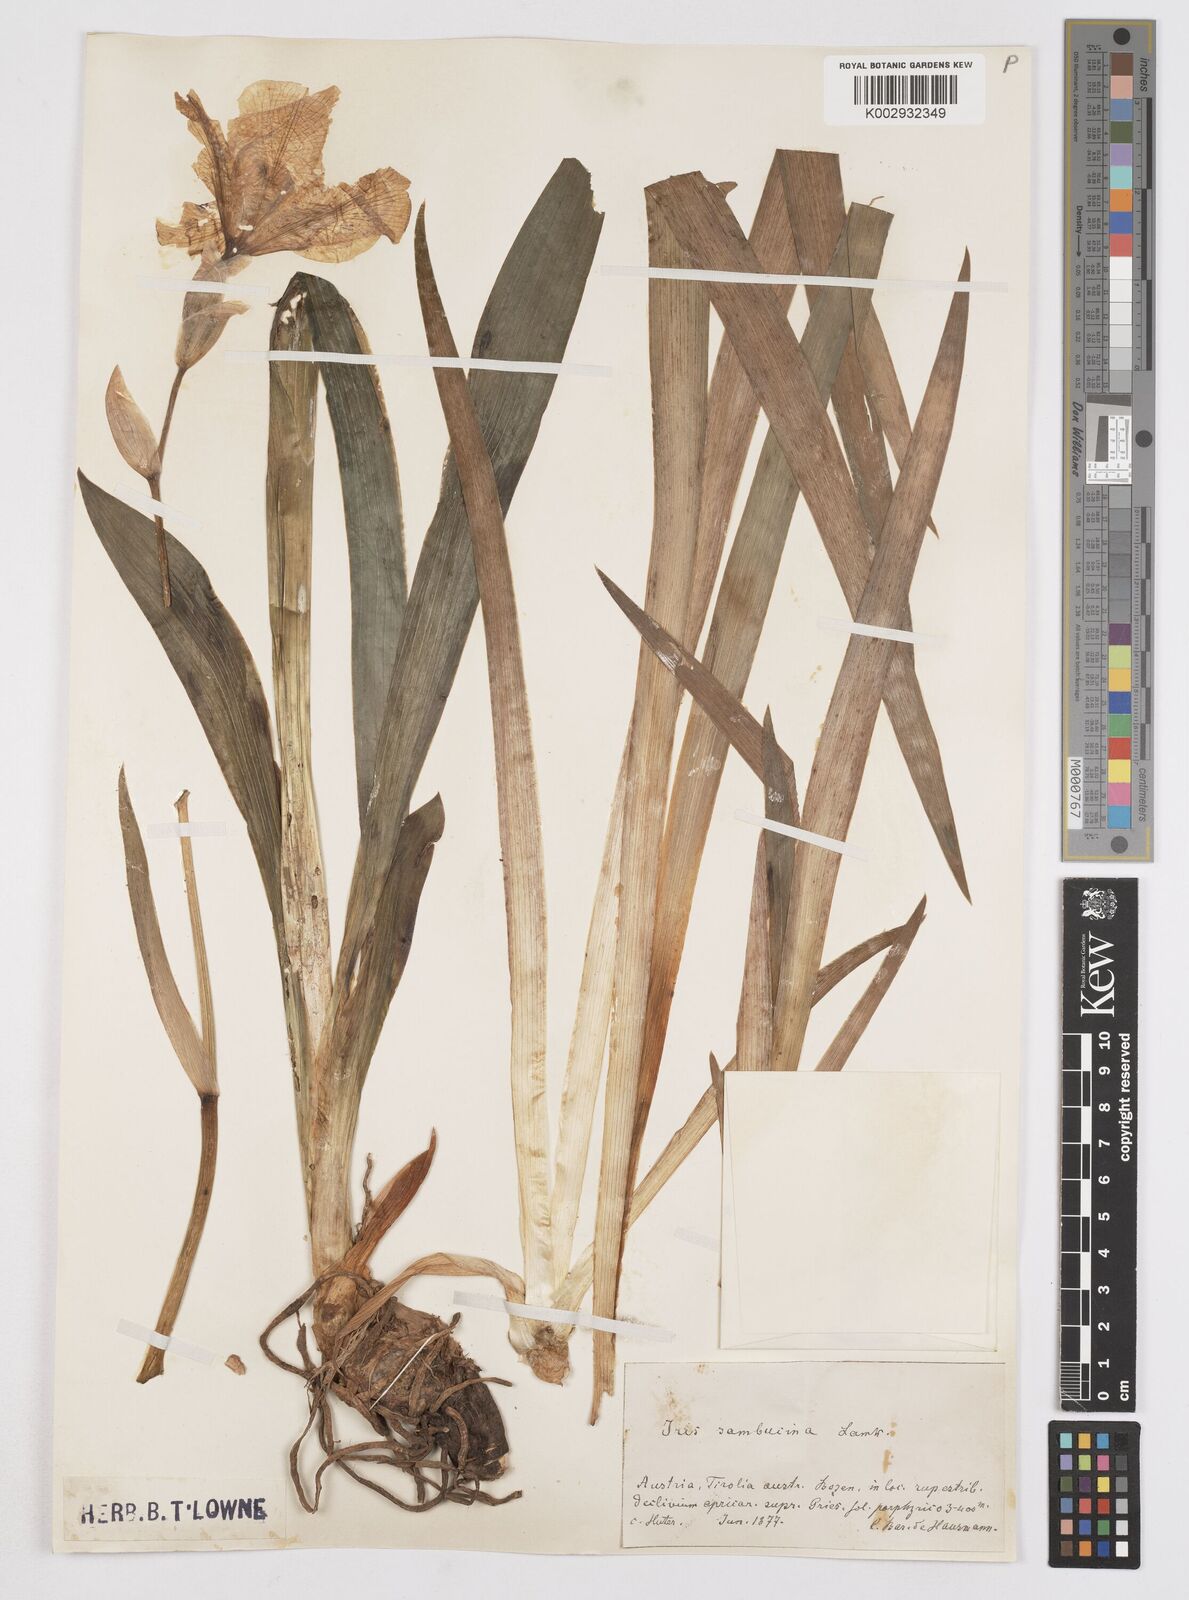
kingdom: Plantae
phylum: Tracheophyta
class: Liliopsida
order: Asparagales
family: Iridaceae
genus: Iris
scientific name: Iris germanica
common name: German iris
